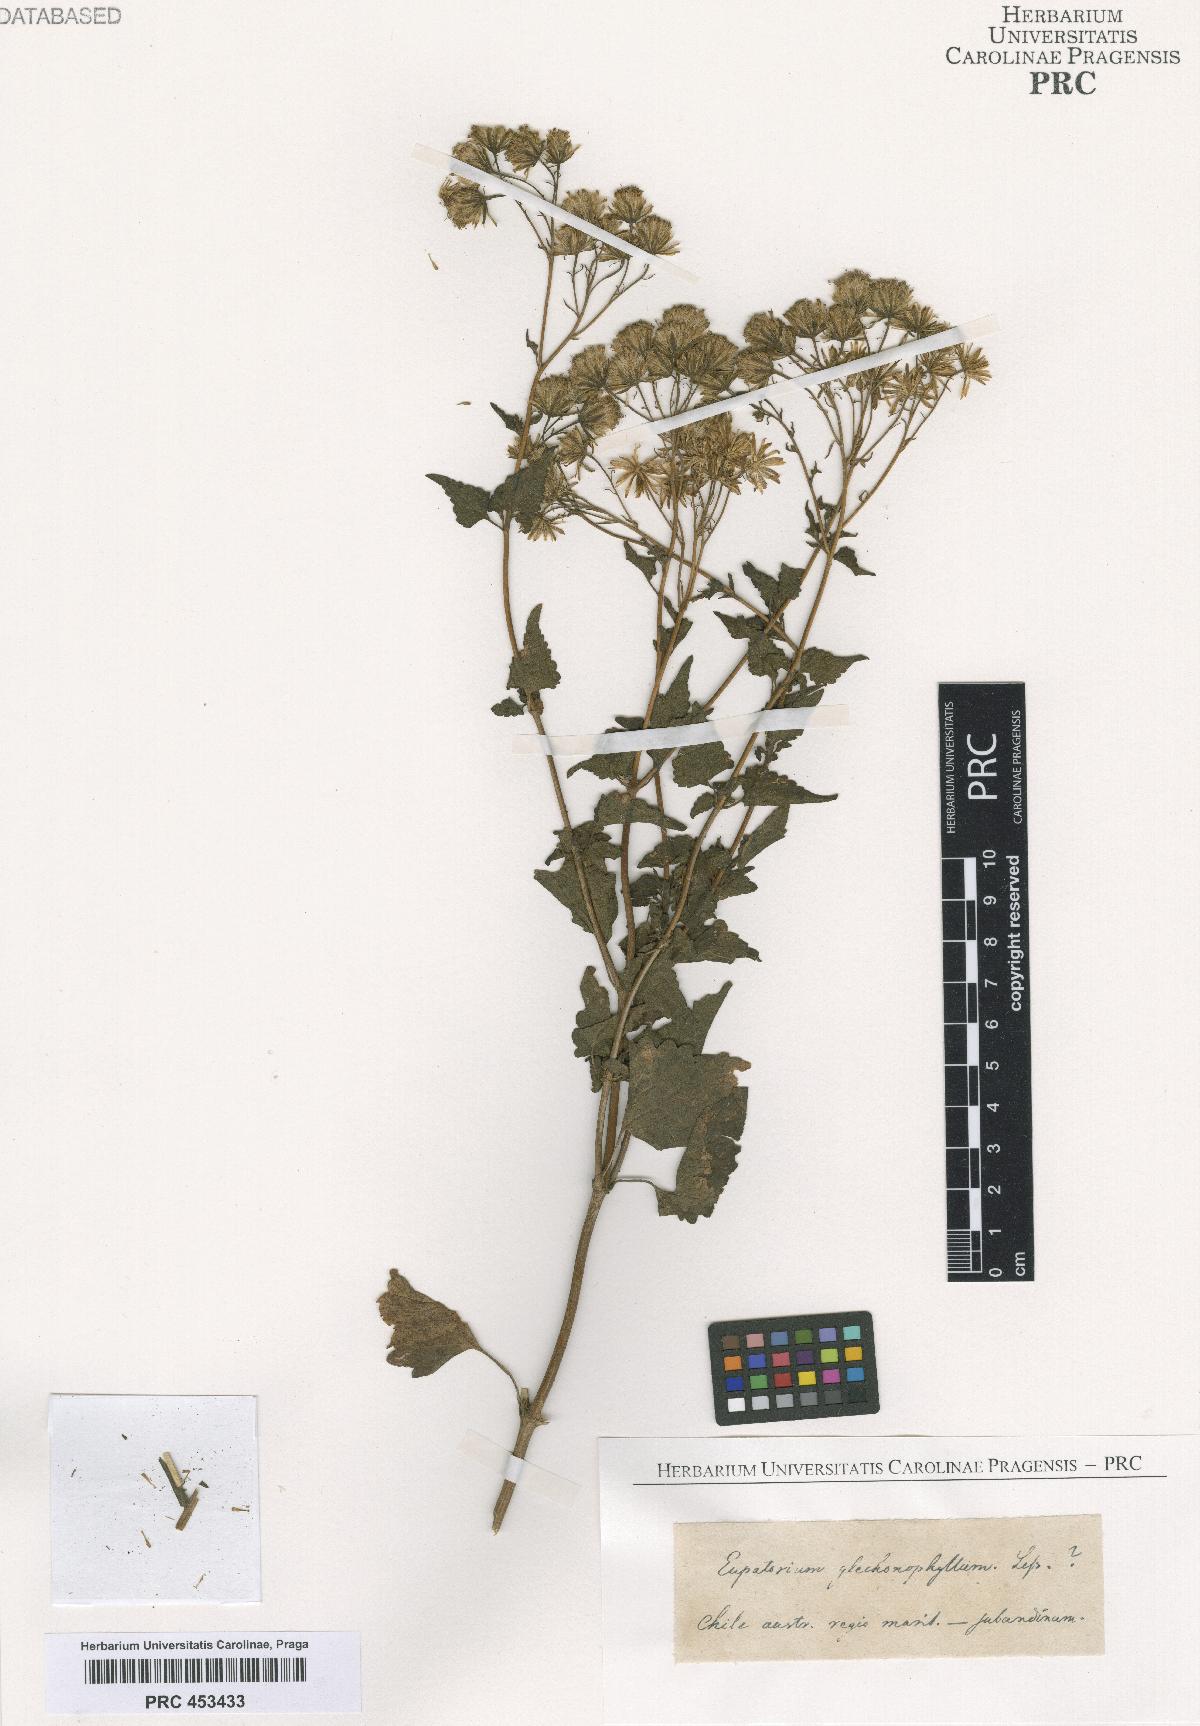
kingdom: Plantae
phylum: Tracheophyta
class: Magnoliopsida
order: Asterales
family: Asteraceae
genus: Eupatorium
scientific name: Eupatorium
